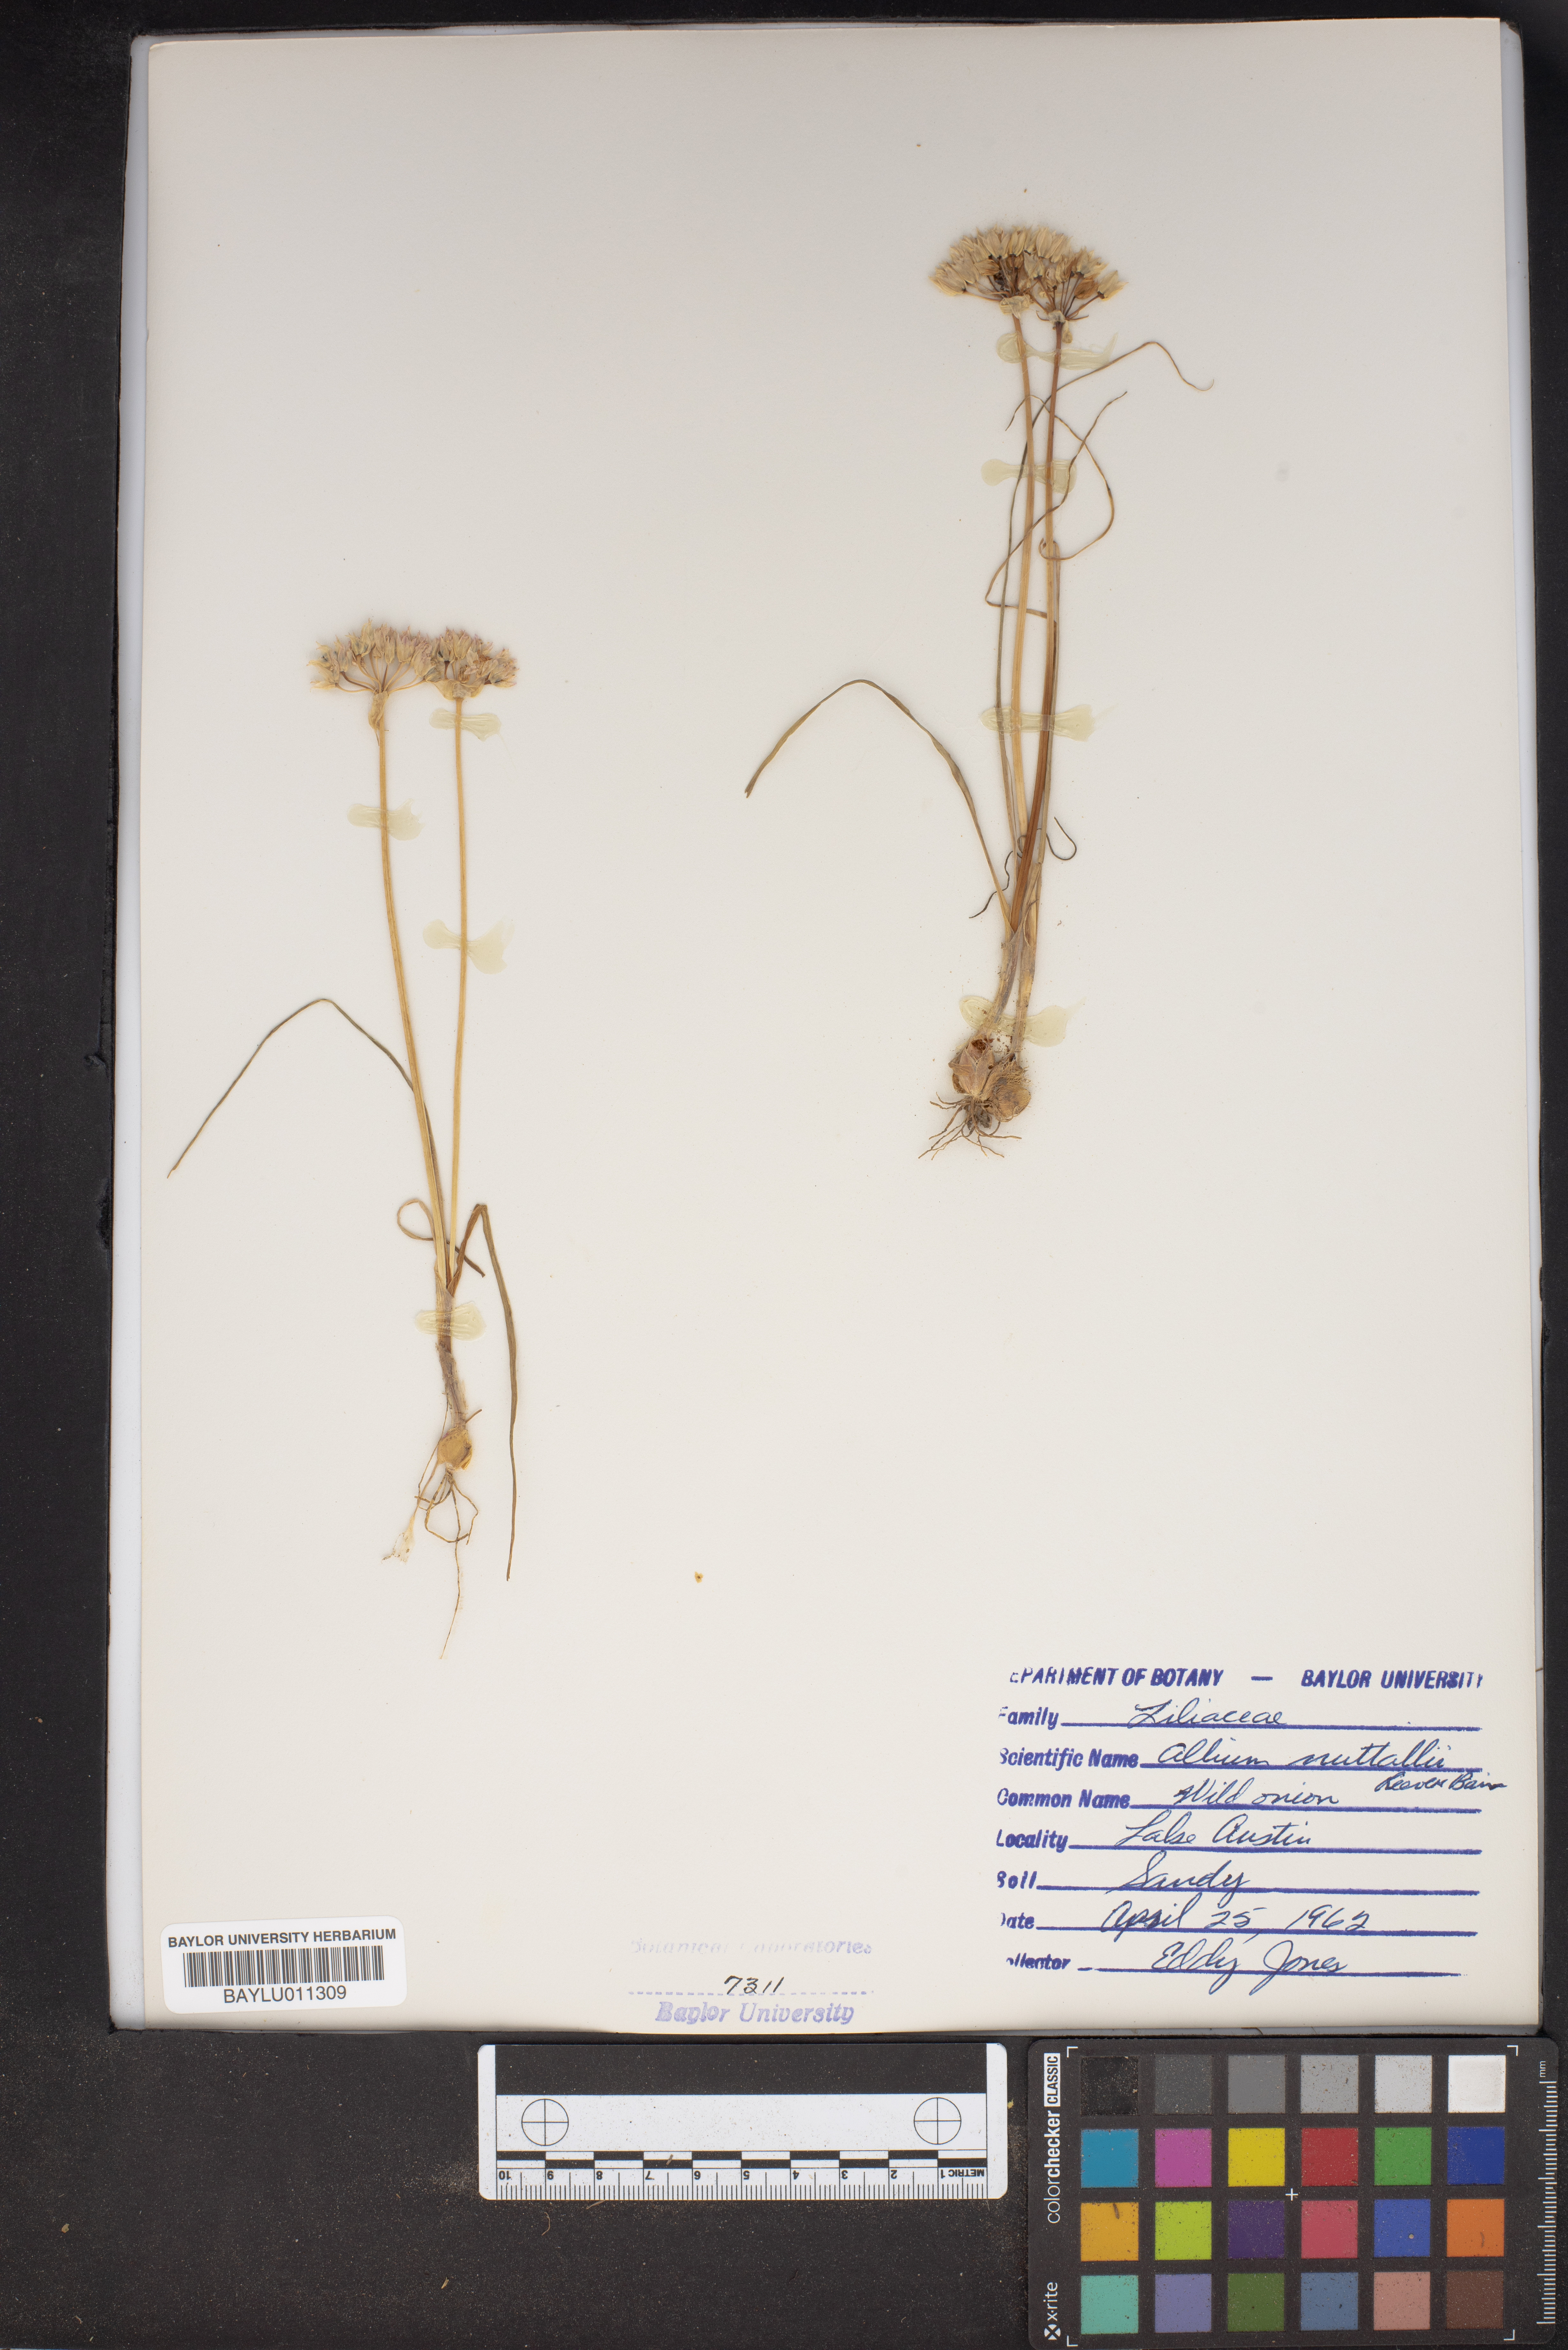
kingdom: Plantae
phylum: Tracheophyta
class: Liliopsida
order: Asparagales
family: Amaryllidaceae
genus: Allium
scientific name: Allium drummondii
